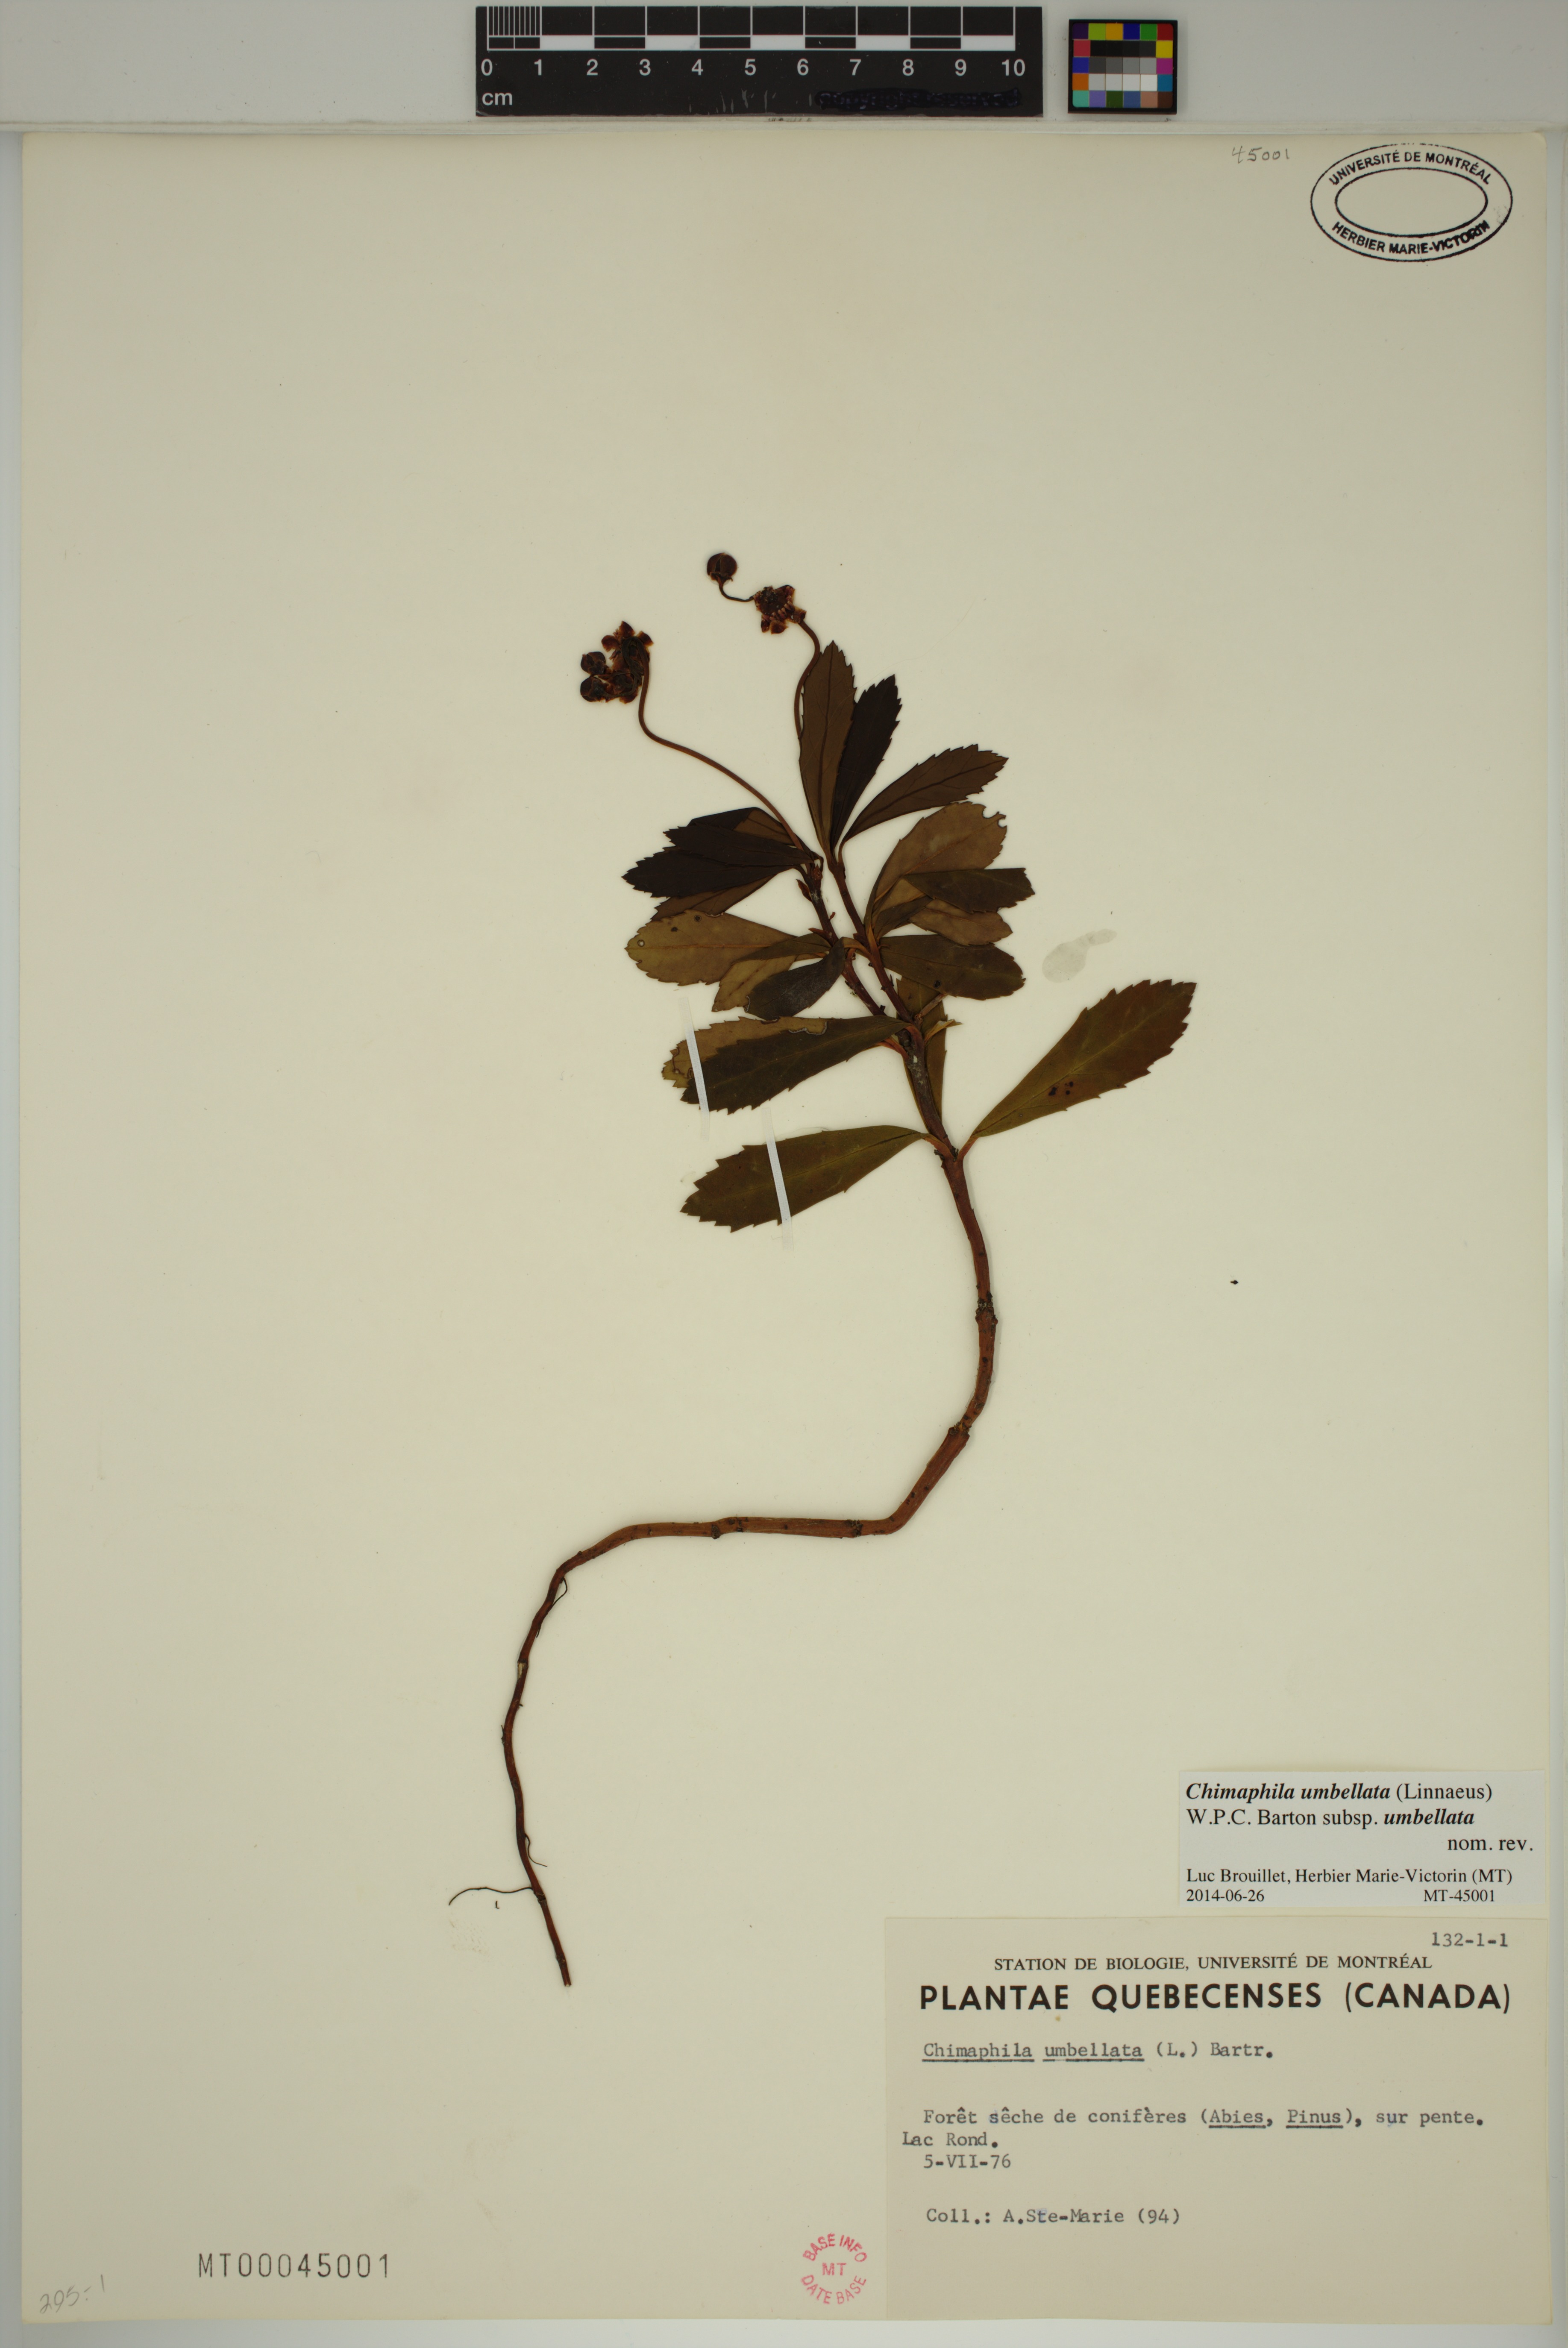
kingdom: Plantae
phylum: Tracheophyta
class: Magnoliopsida
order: Ericales
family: Ericaceae
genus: Chimaphila
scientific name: Chimaphila umbellata
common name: Pipsissewa
